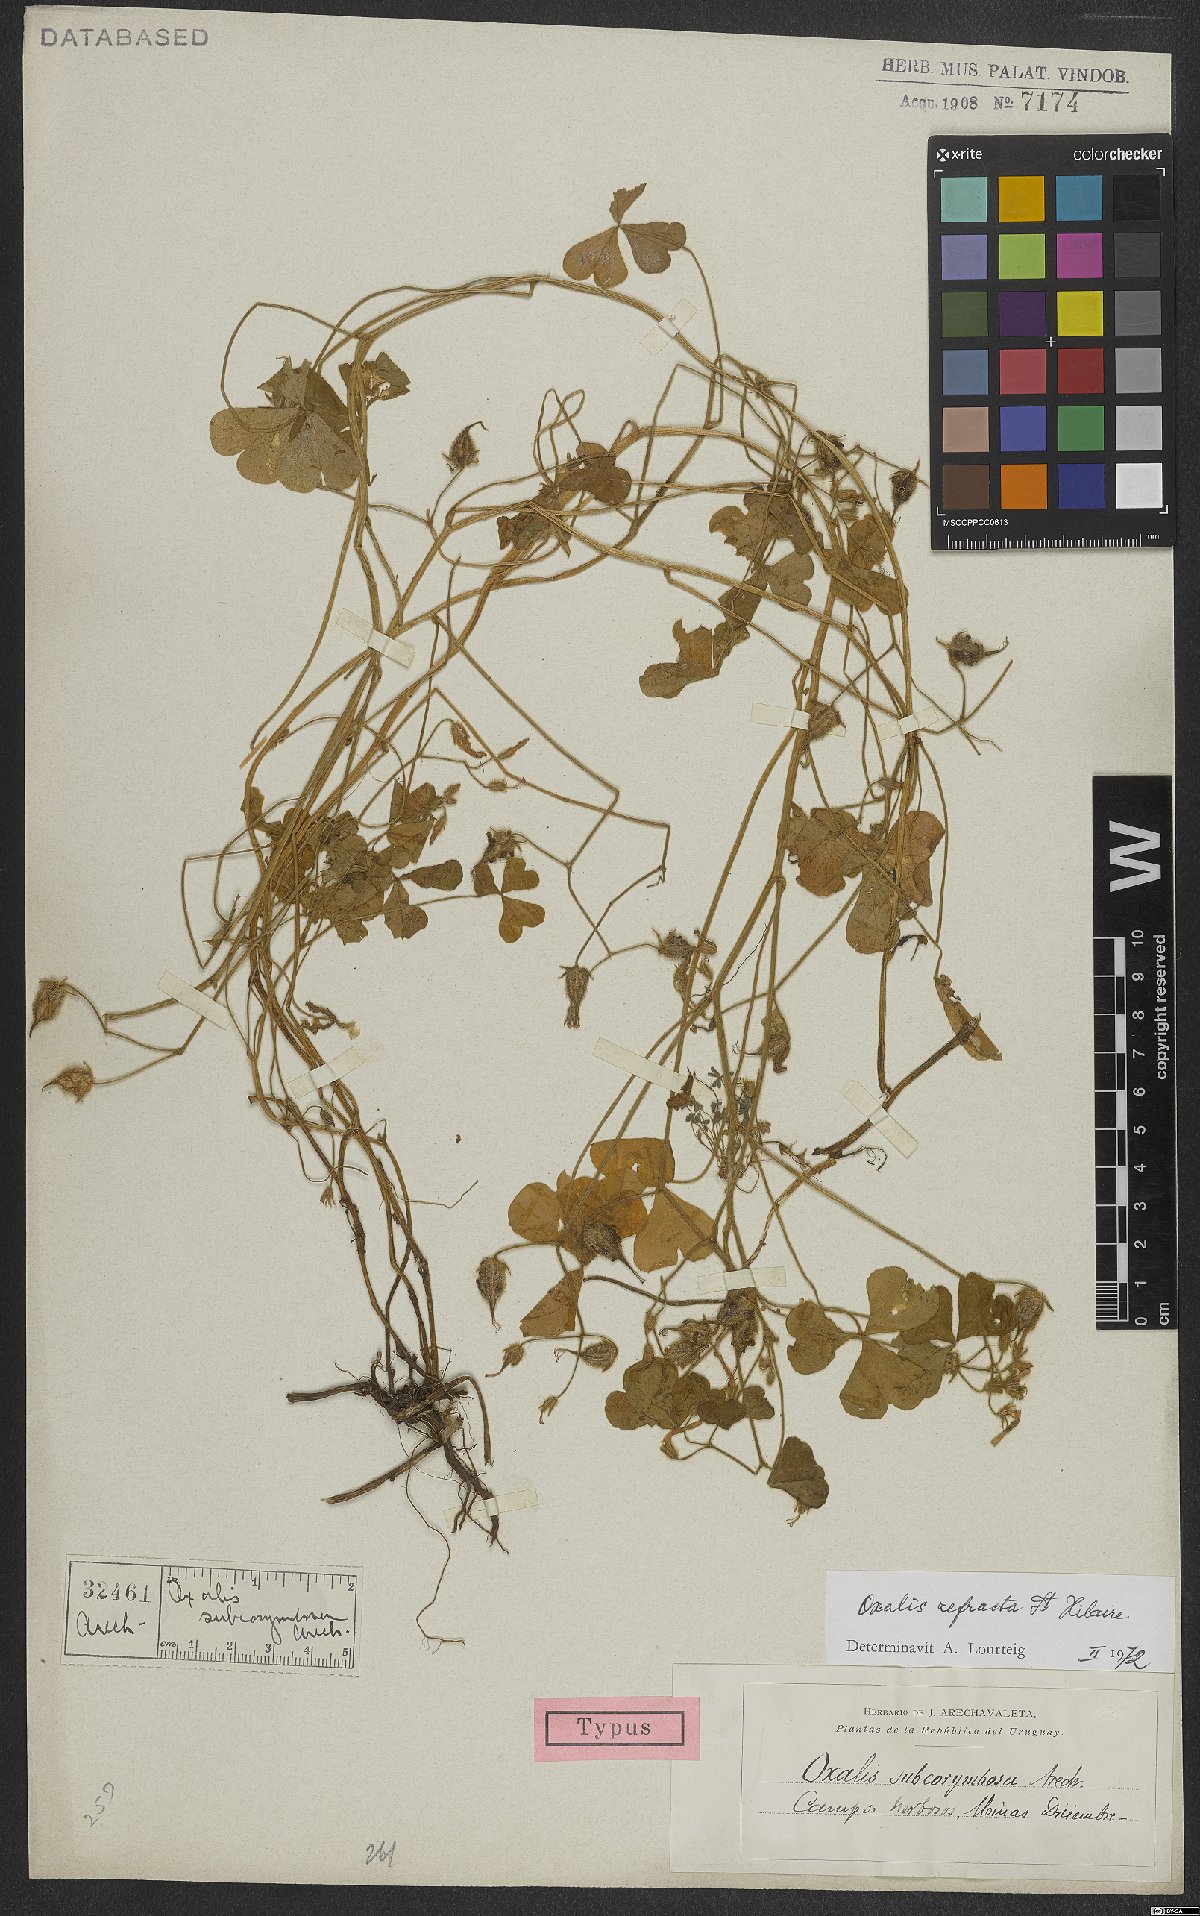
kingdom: Plantae
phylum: Tracheophyta
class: Magnoliopsida
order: Oxalidales
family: Oxalidaceae
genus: Oxalis
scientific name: Oxalis refracta
